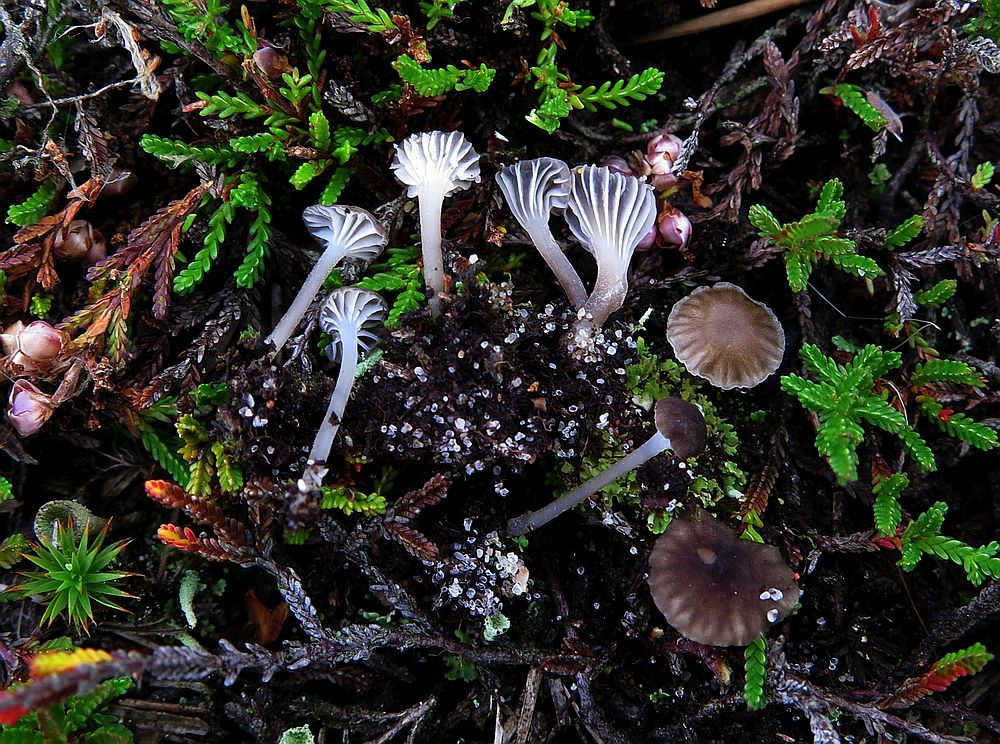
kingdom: Fungi
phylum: Basidiomycota
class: Agaricomycetes
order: Agaricales
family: Mycenaceae
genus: Hydropus
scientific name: Hydropus moserianus
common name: nedløbende fnugfod
